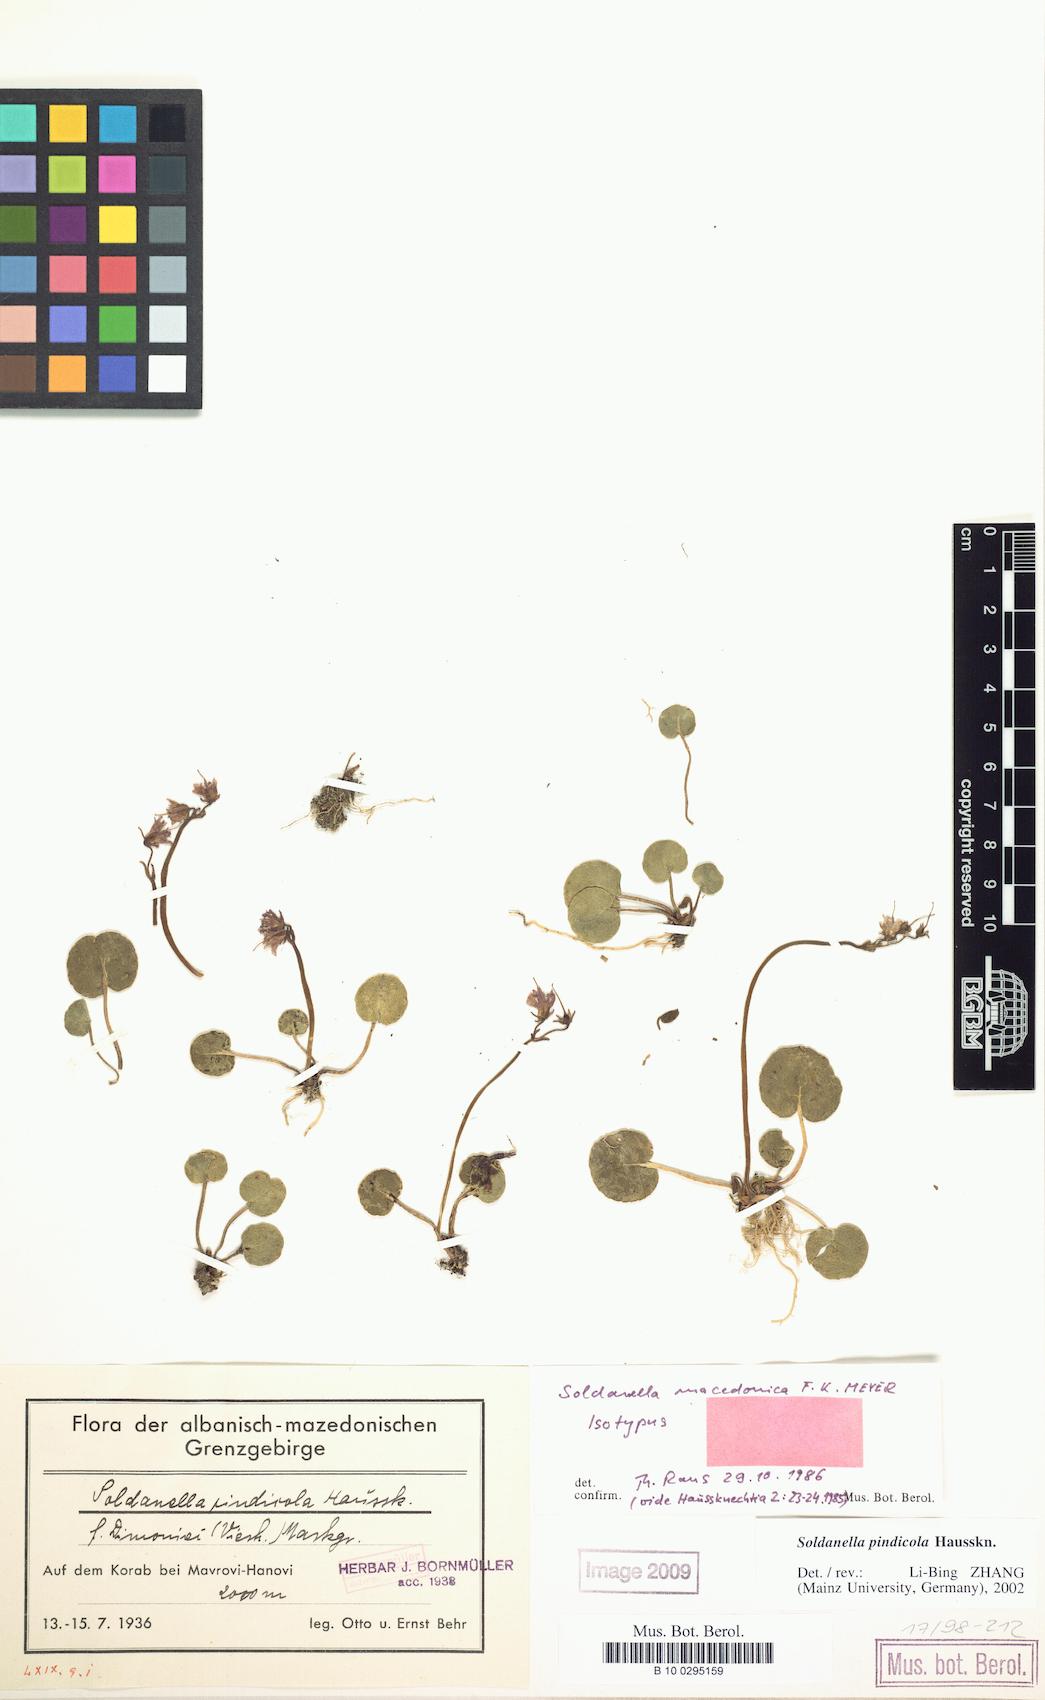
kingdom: Plantae
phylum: Tracheophyta
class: Magnoliopsida
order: Ericales
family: Primulaceae
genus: Soldanella
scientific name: Soldanella pindicola
